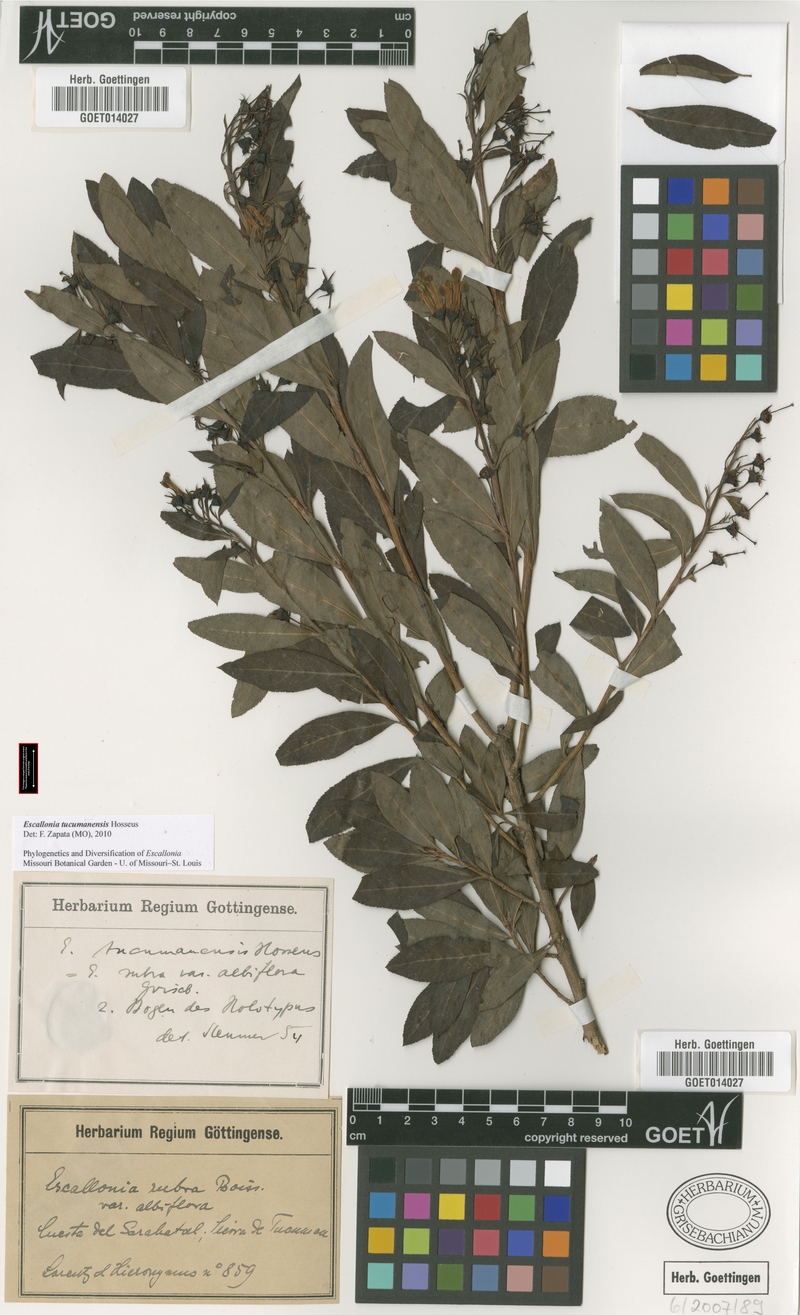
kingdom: Plantae
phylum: Tracheophyta
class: Magnoliopsida
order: Escalloniales
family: Escalloniaceae
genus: Escallonia
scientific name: Escallonia tucumanensis
